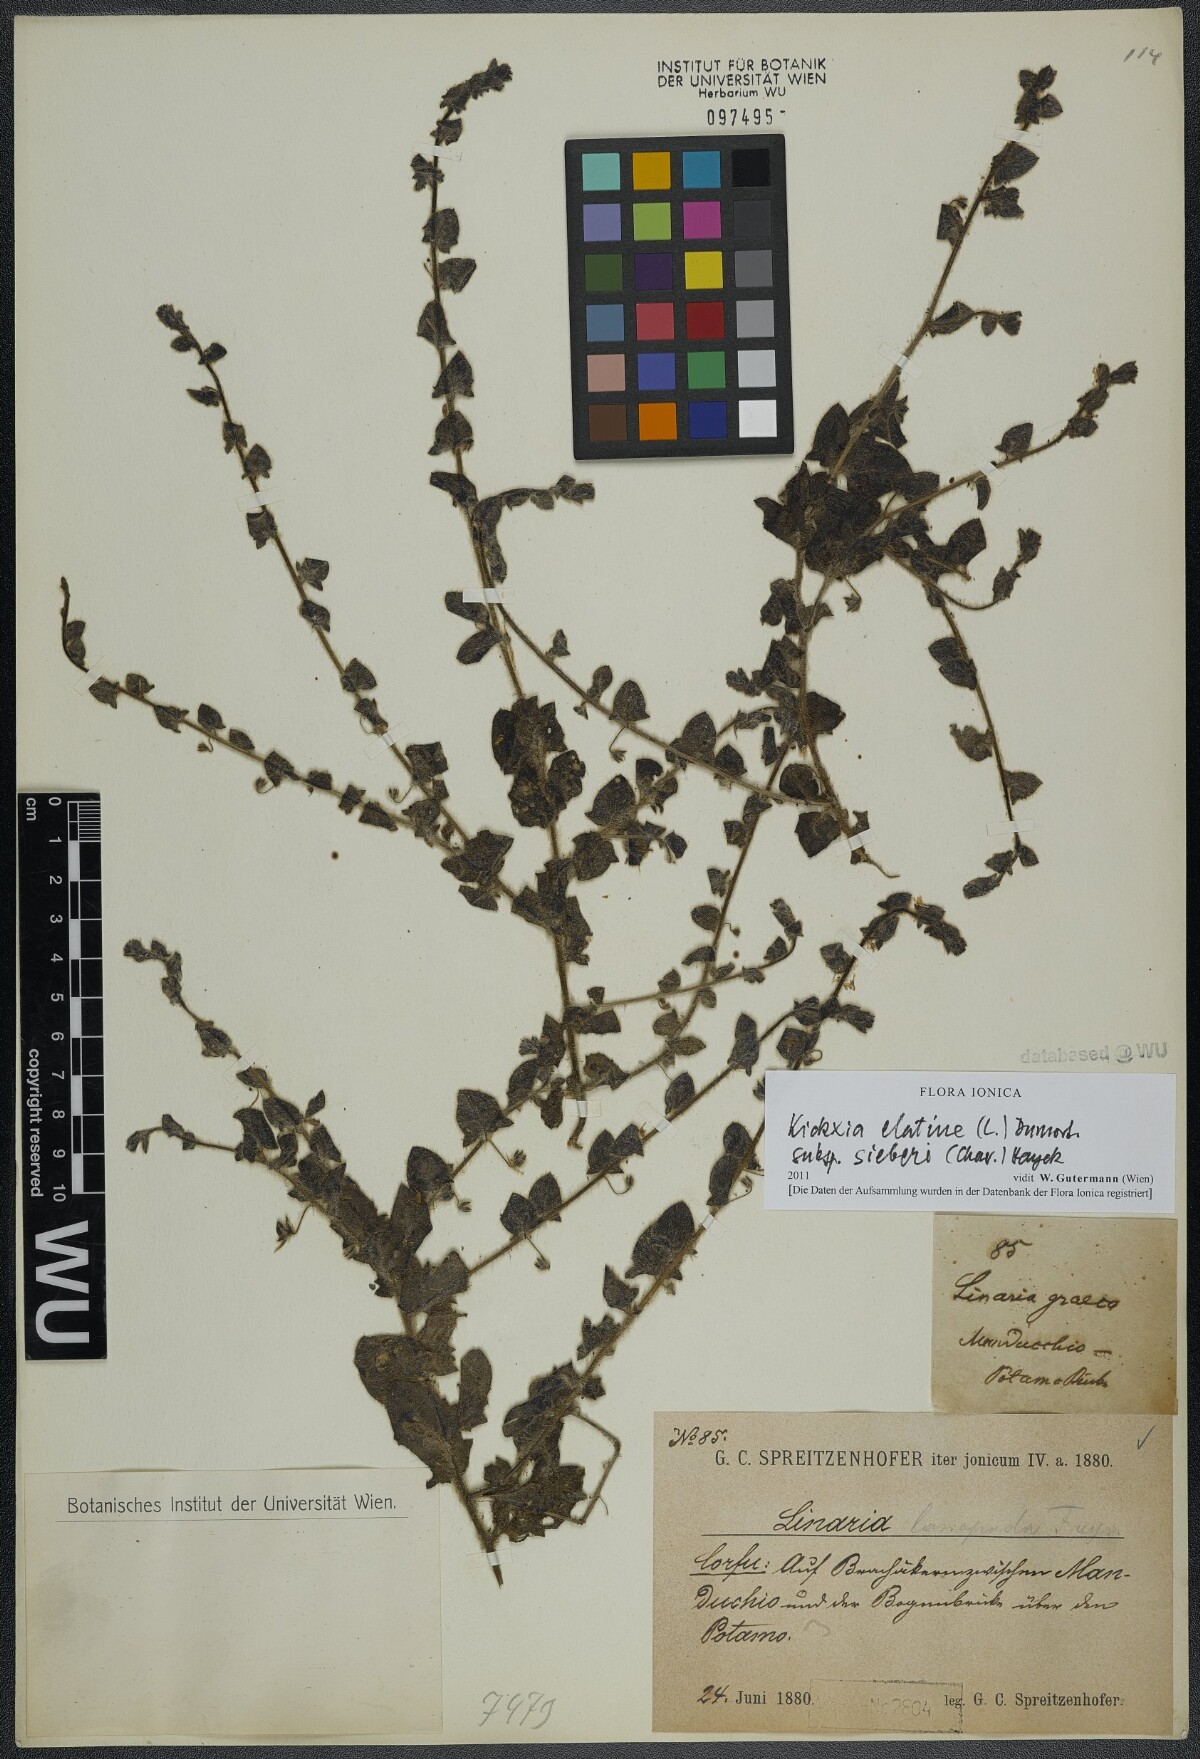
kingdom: Plantae
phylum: Tracheophyta
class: Magnoliopsida
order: Lamiales
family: Plantaginaceae
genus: Kickxia
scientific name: Kickxia elatine
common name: Sharp-leaved fluellen
